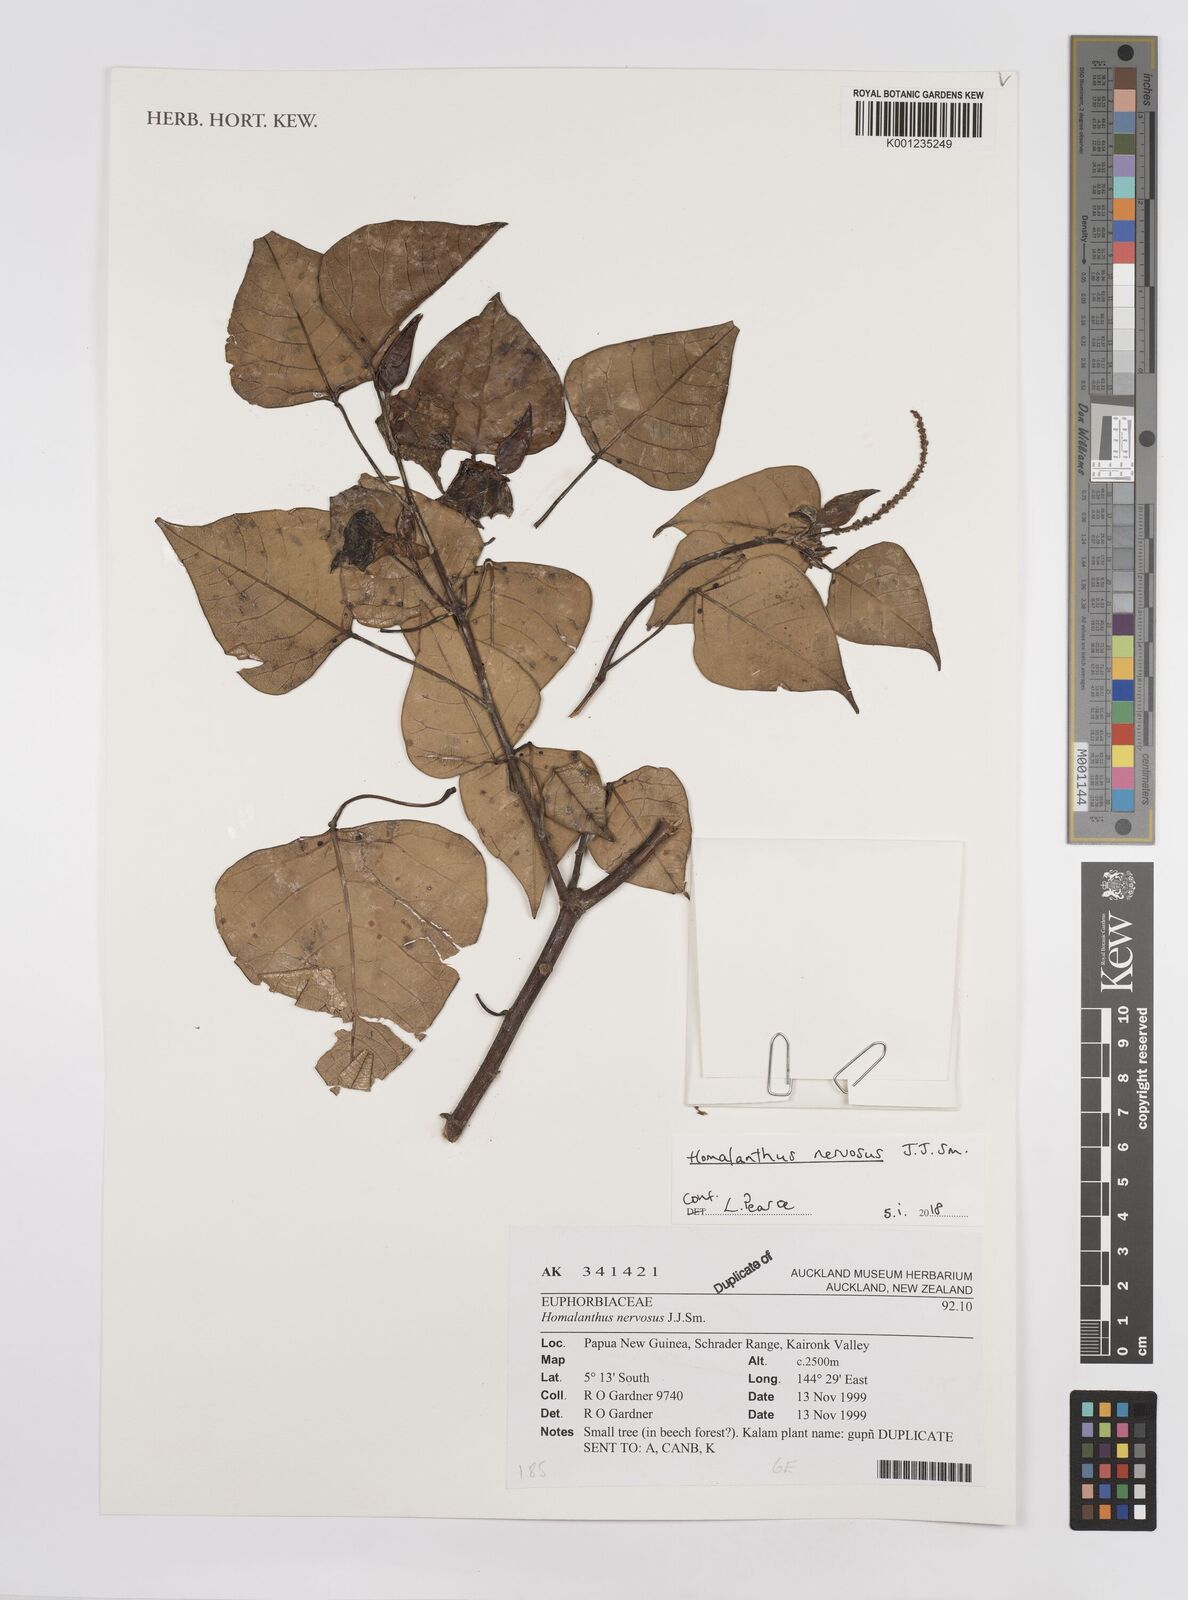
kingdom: Plantae
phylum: Tracheophyta
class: Magnoliopsida
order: Malpighiales
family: Euphorbiaceae
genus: Homalanthus
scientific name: Homalanthus nervosus
